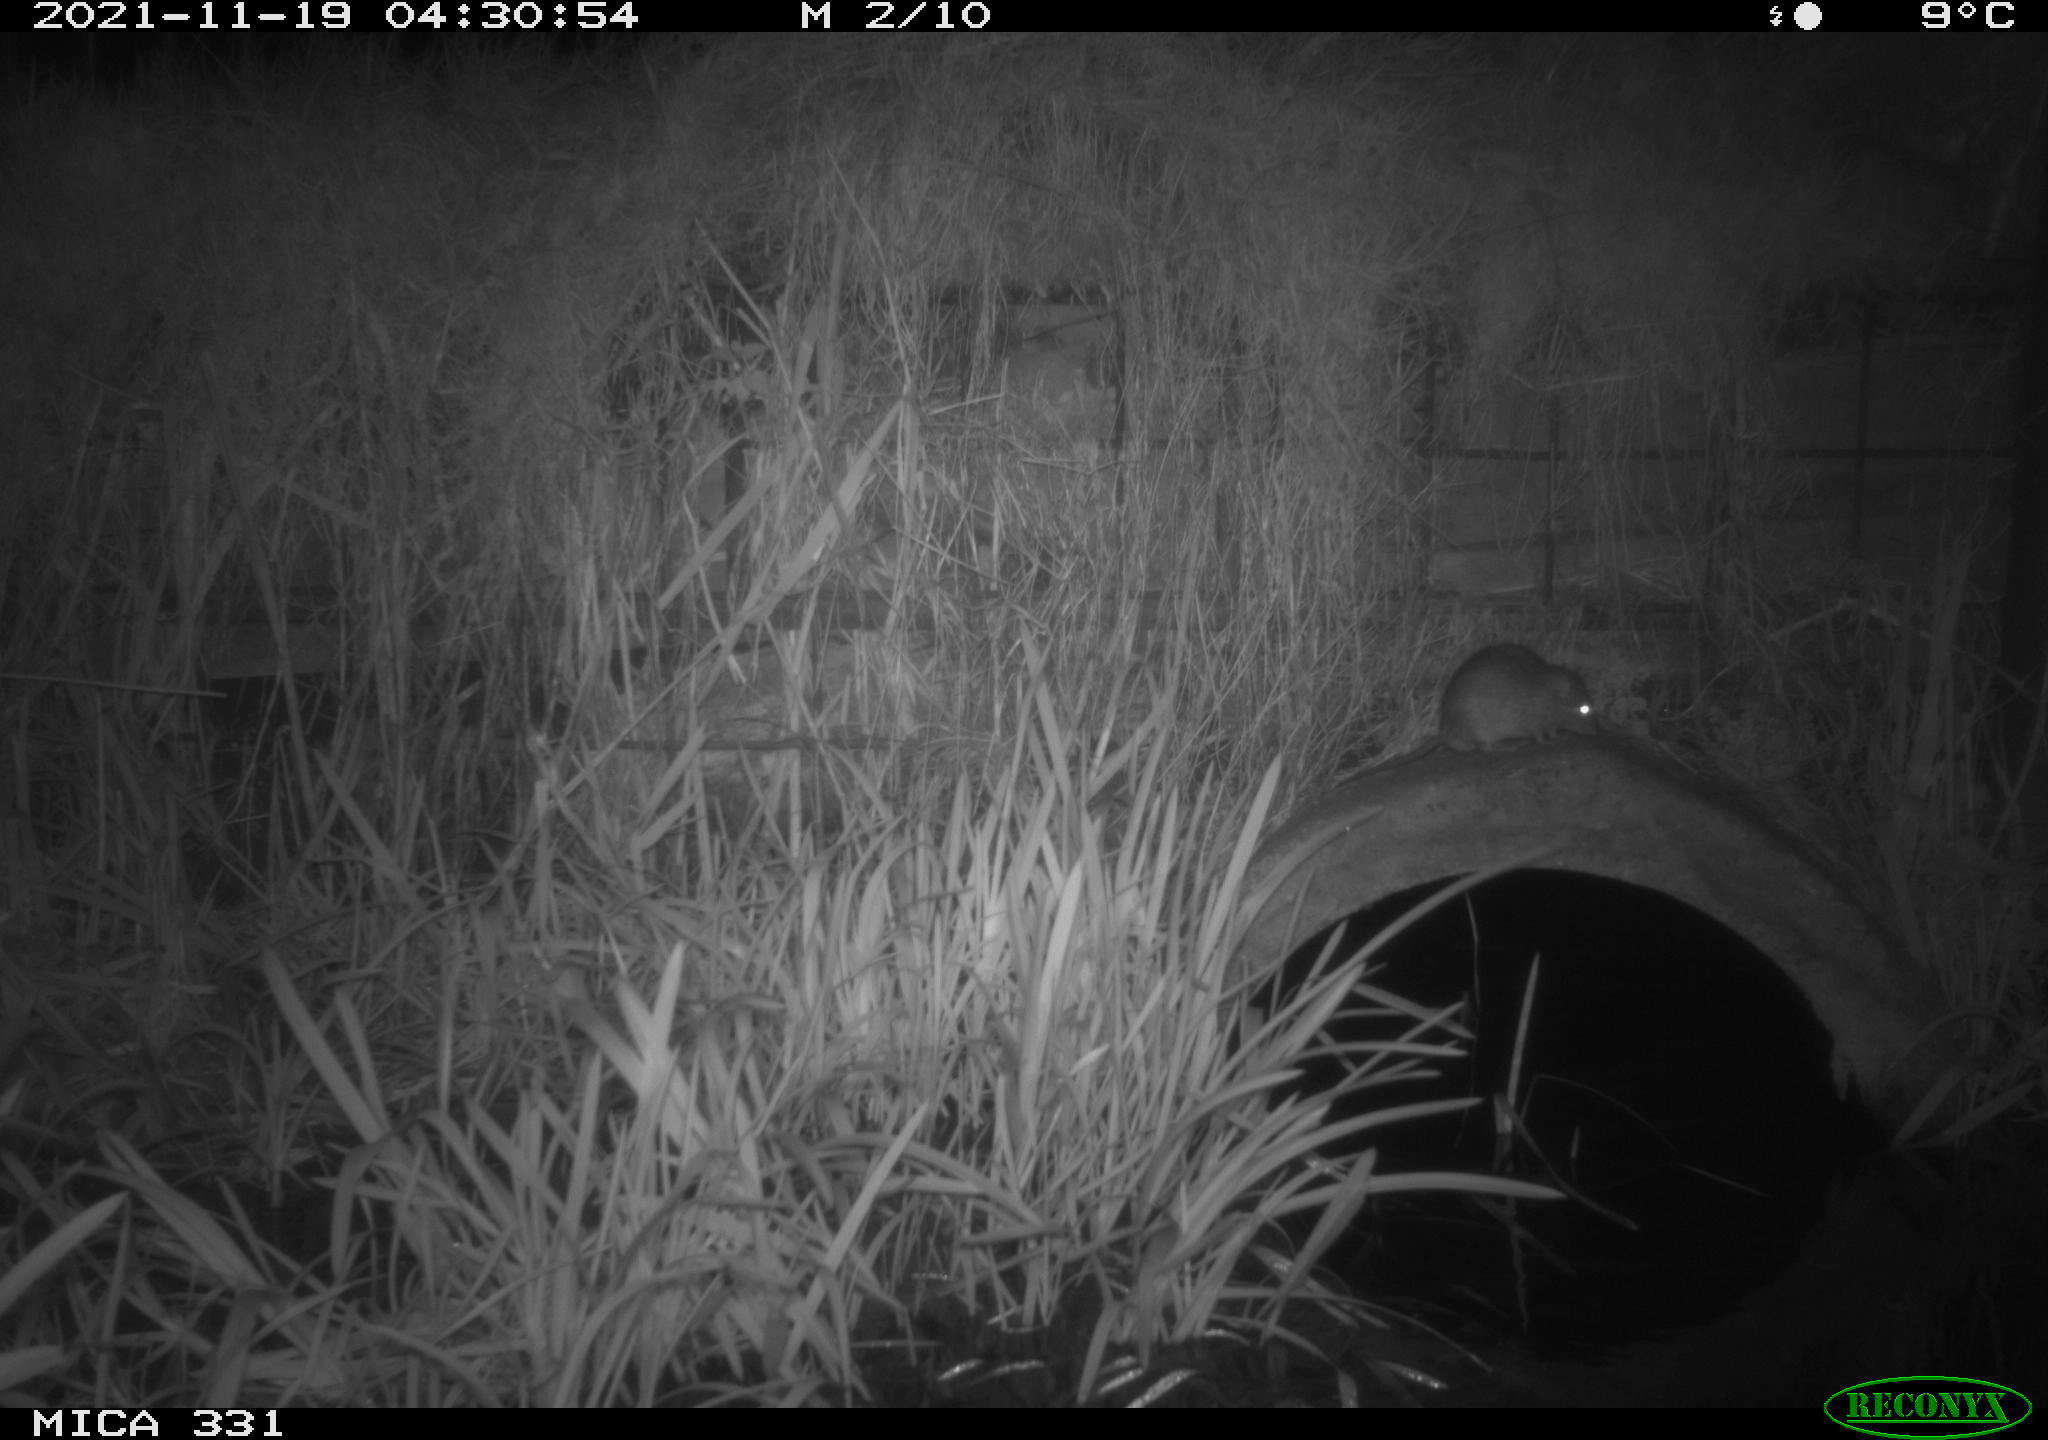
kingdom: Animalia
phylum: Chordata
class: Mammalia
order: Rodentia
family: Muridae
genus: Rattus
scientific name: Rattus norvegicus
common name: Brown rat
